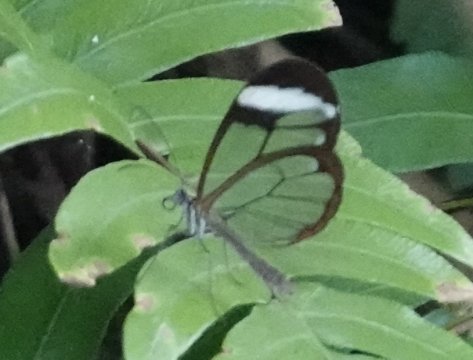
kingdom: Animalia
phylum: Arthropoda
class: Insecta
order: Lepidoptera
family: Nymphalidae
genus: Pseudoscada
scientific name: Pseudoscada timna
